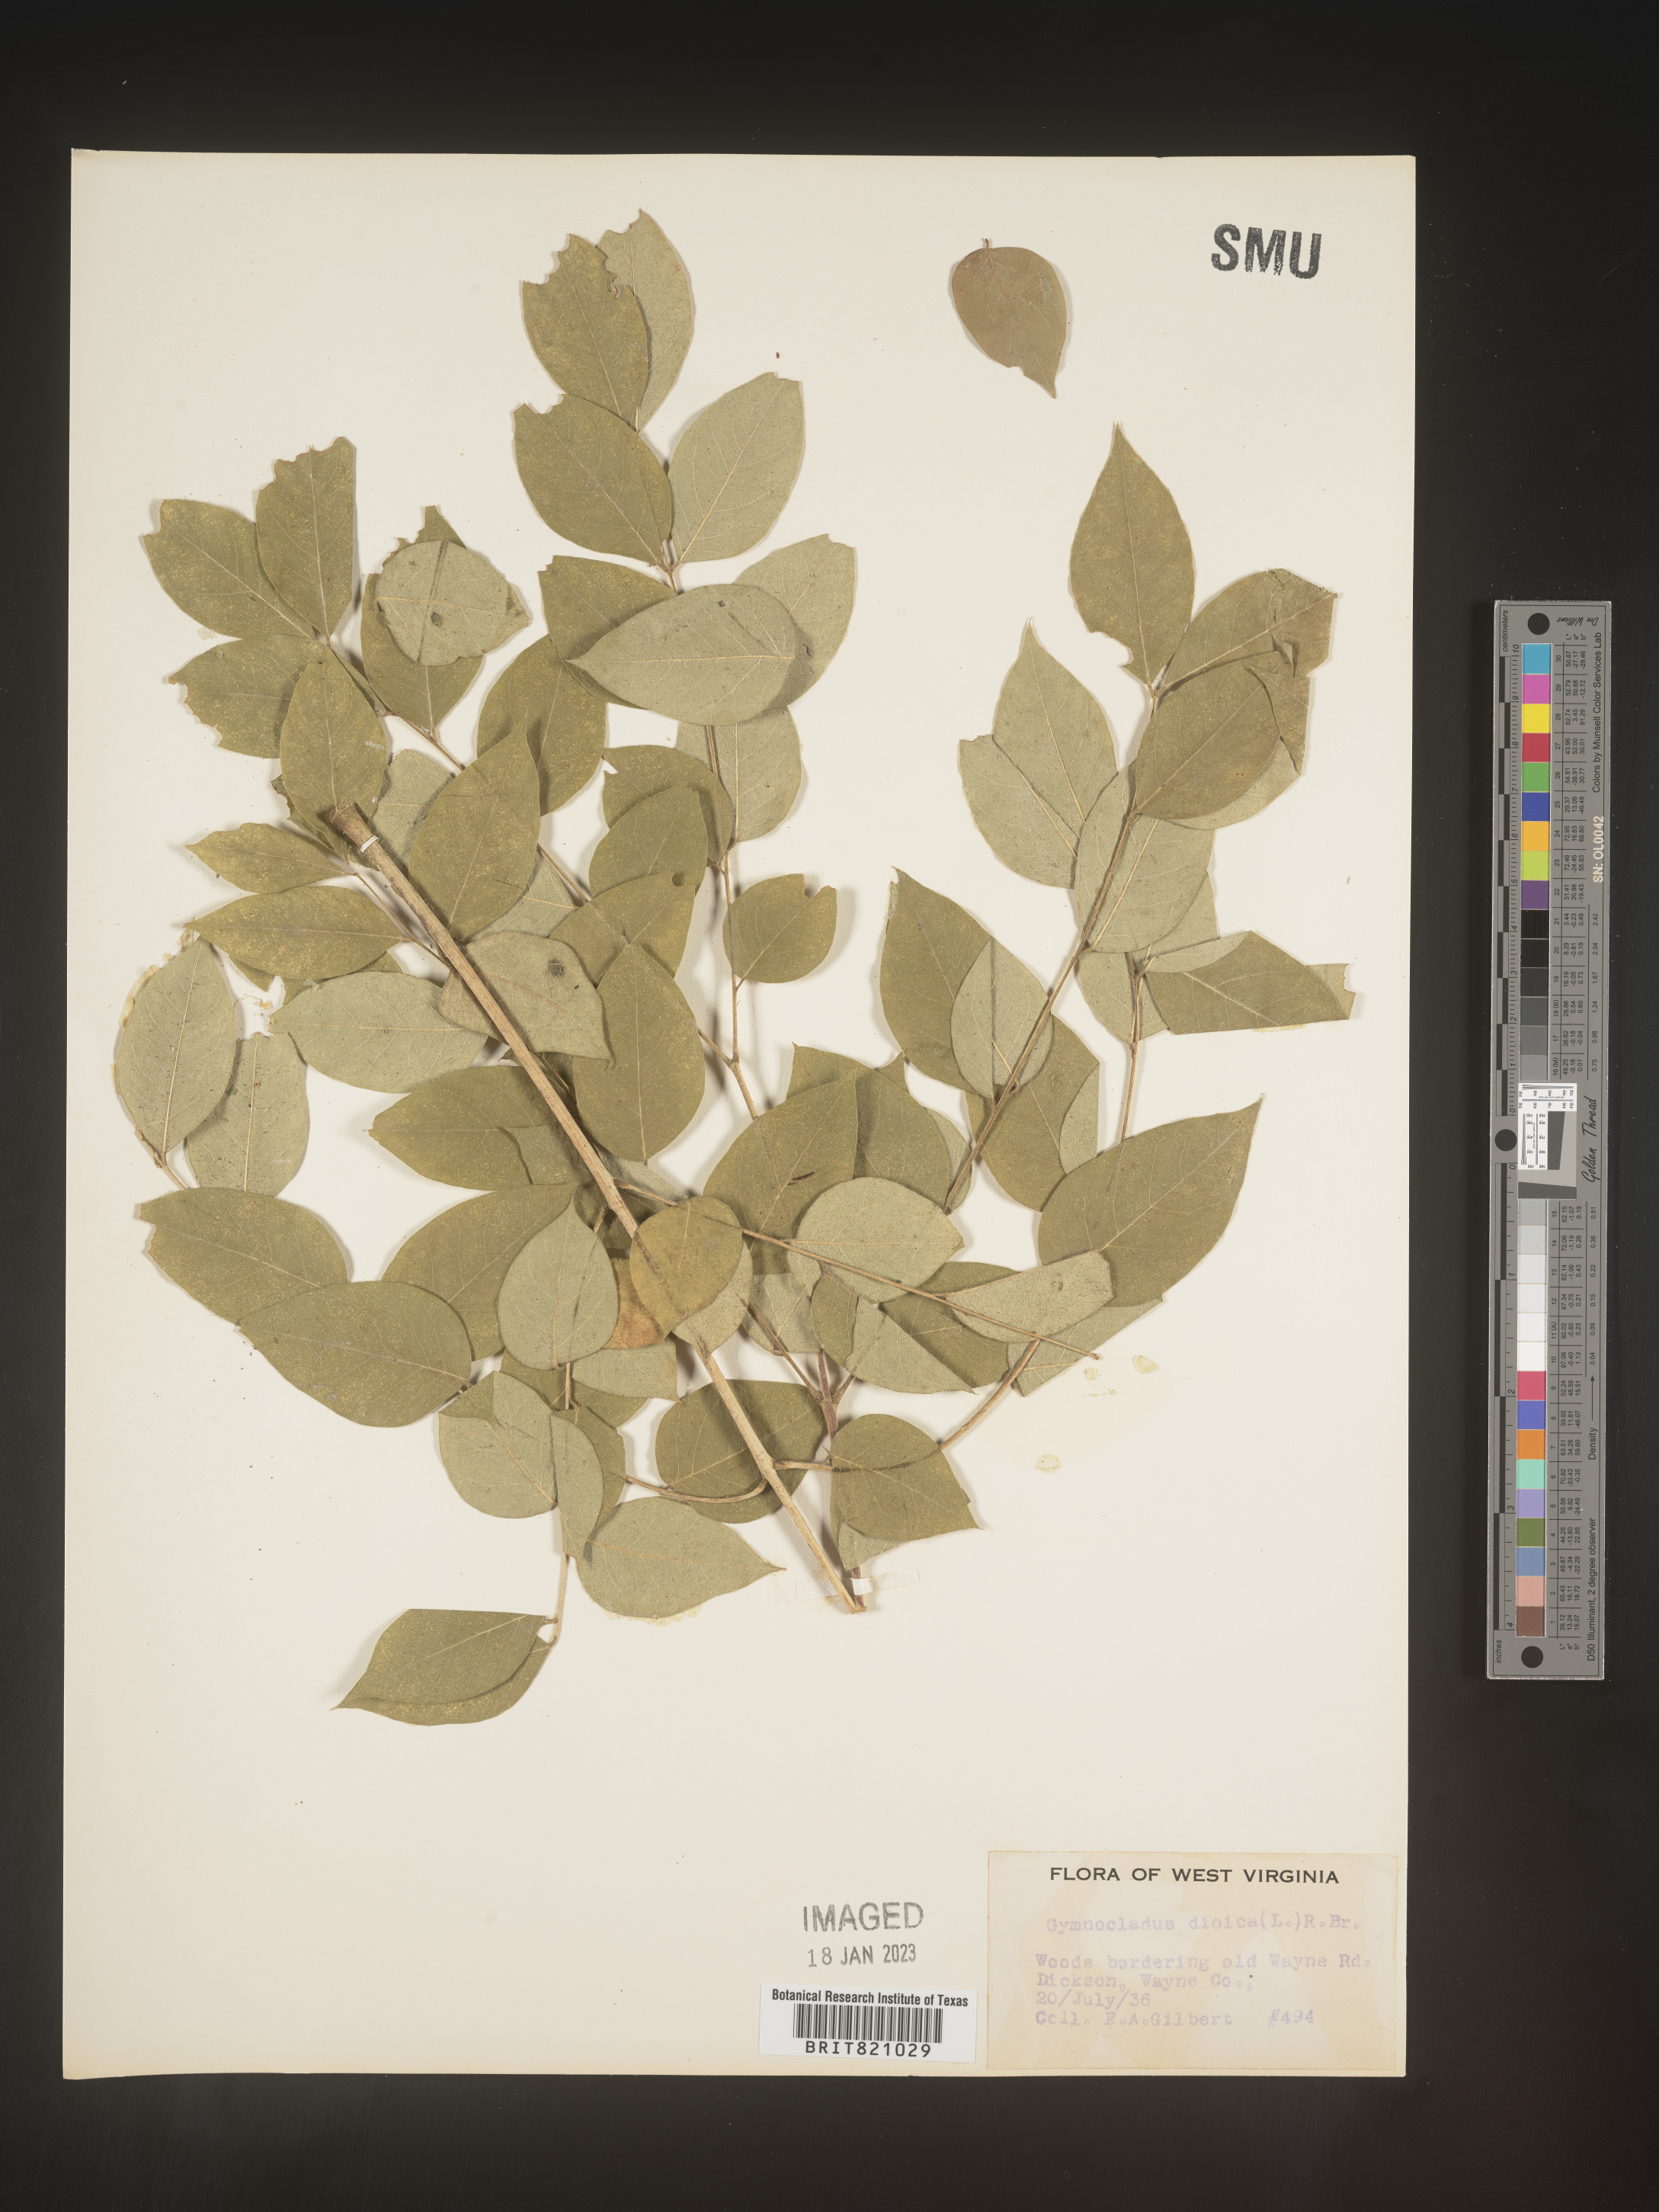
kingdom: Plantae
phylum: Tracheophyta
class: Magnoliopsida
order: Fabales
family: Fabaceae
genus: Gymnocladus
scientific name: Gymnocladus dioicus
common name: Kentucky coffee-tree
